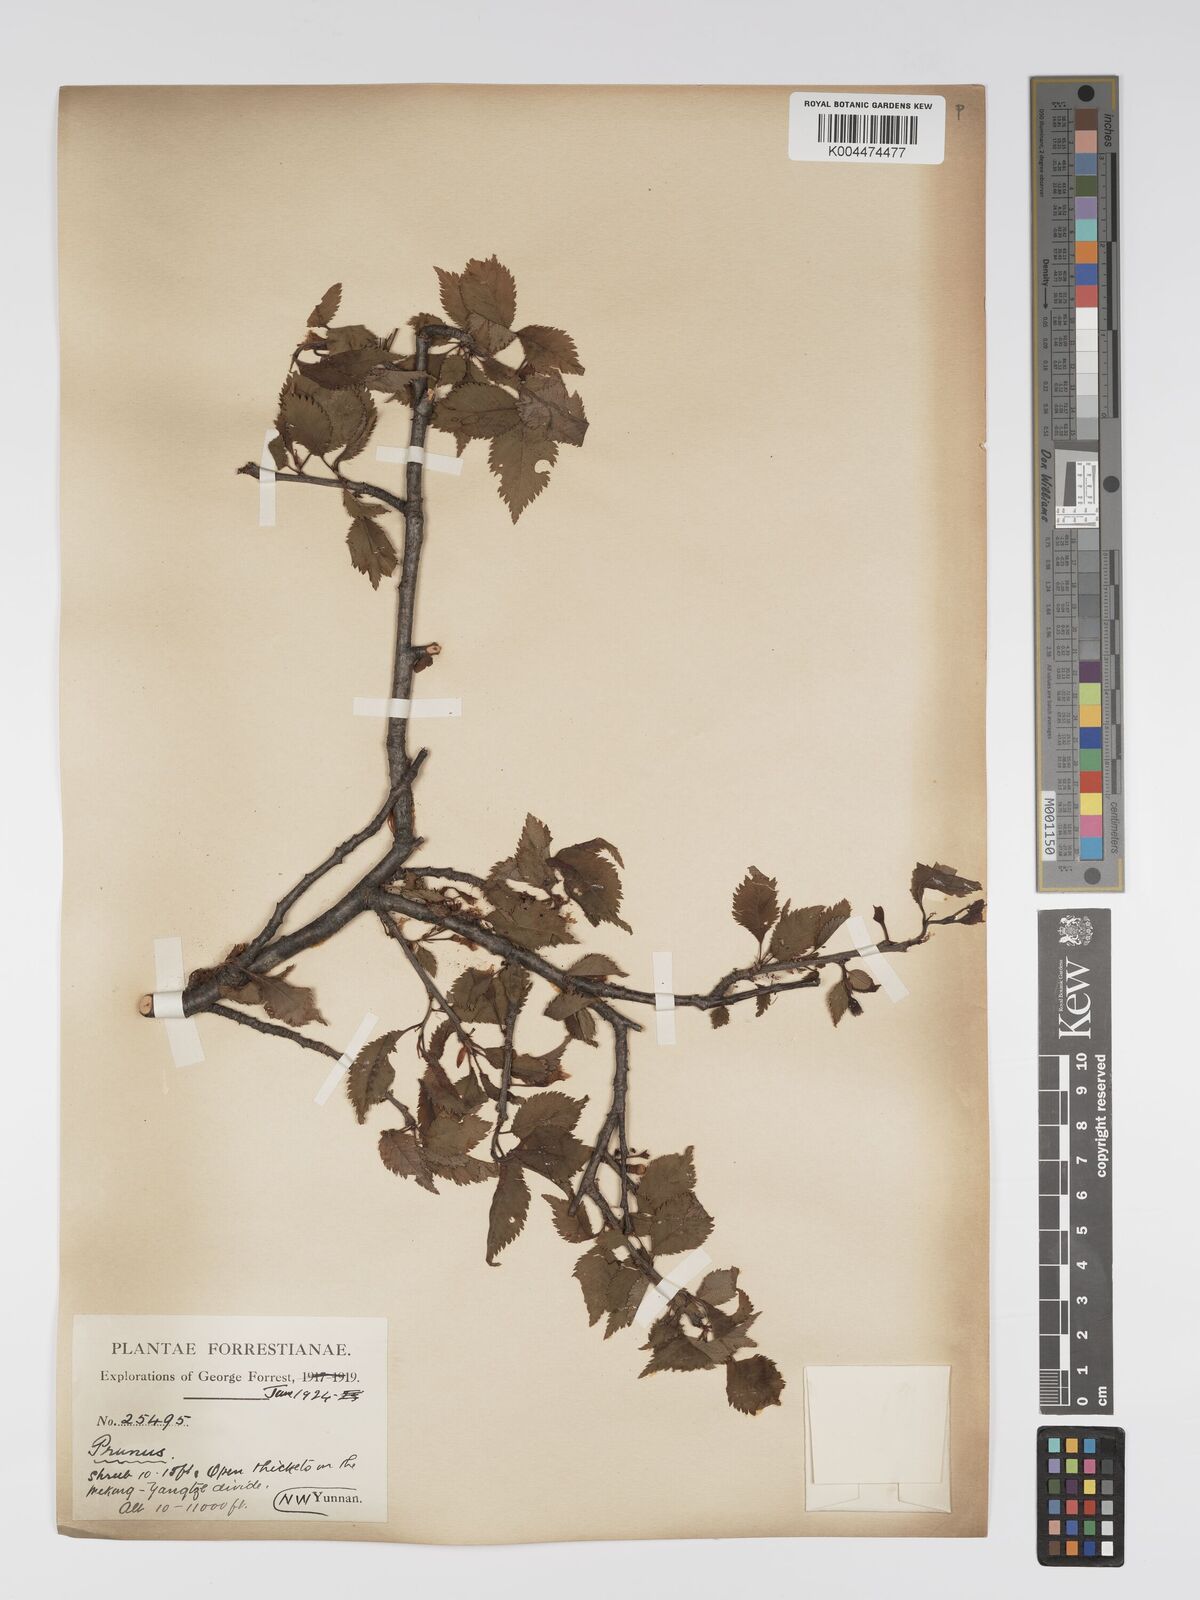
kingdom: Plantae
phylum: Tracheophyta
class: Magnoliopsida
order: Rosales
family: Rosaceae
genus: Prunus
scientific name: Prunus
